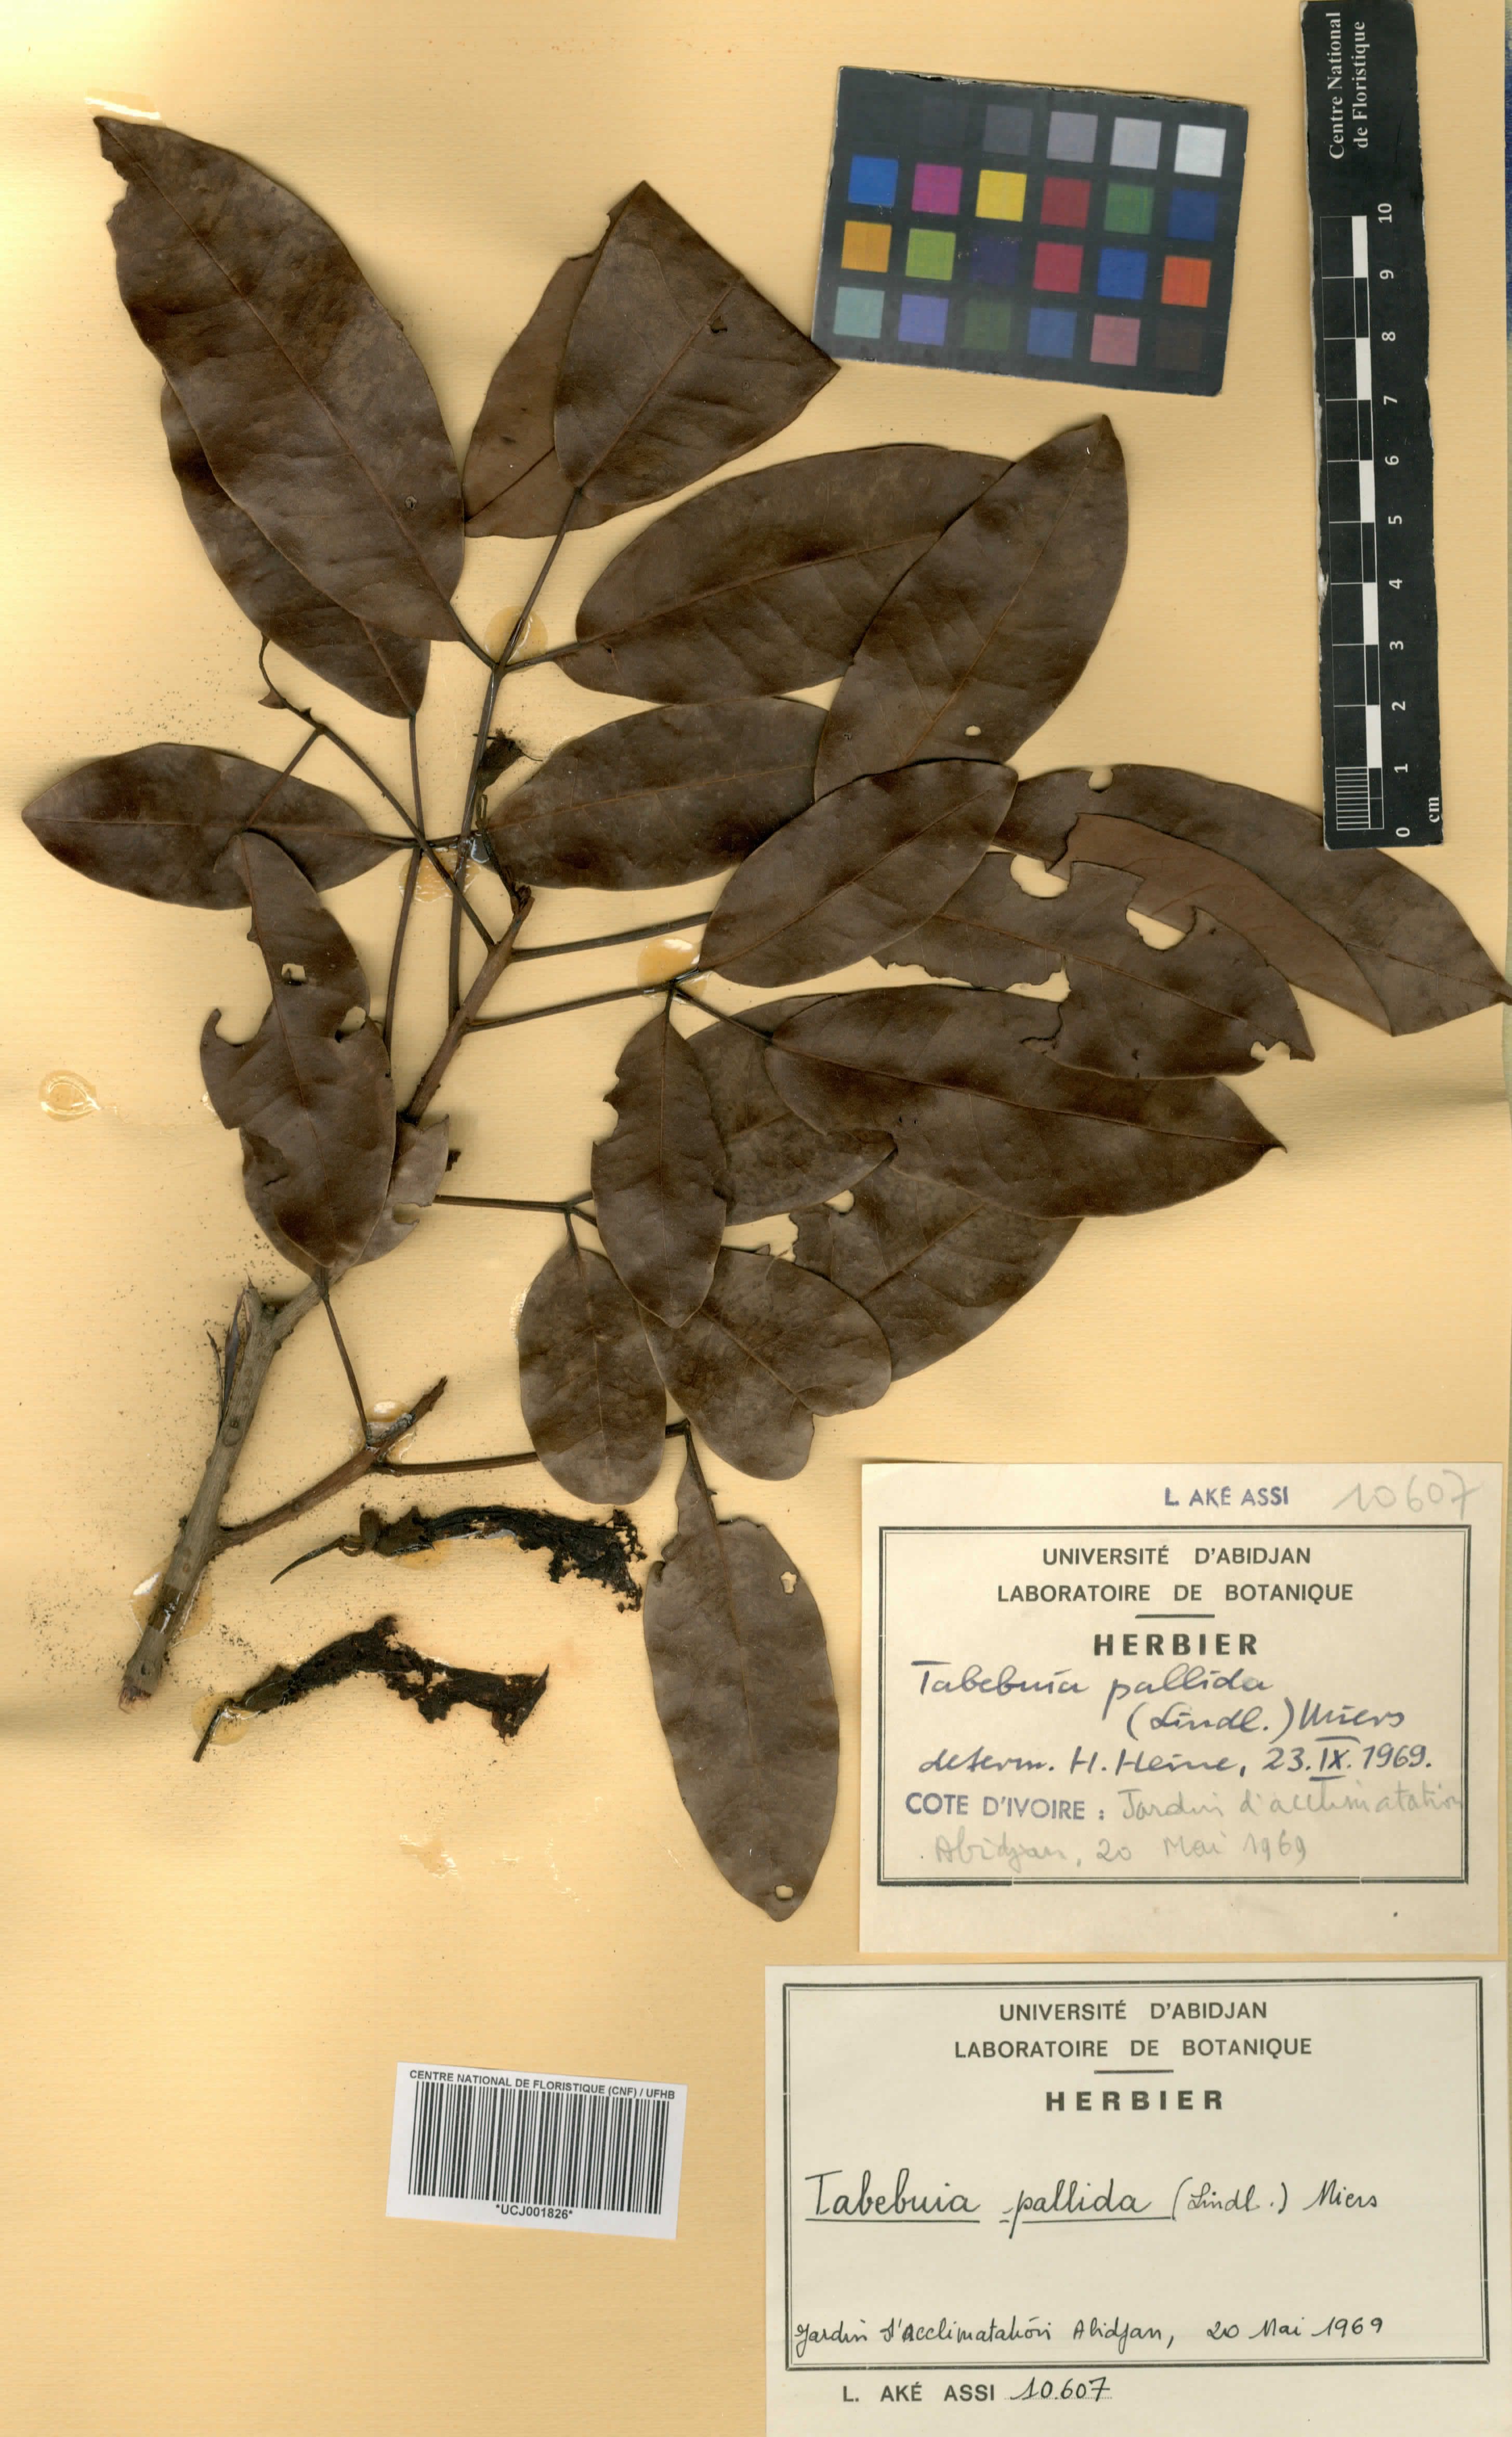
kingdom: Plantae
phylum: Tracheophyta
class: Magnoliopsida
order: Lamiales
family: Bignoniaceae
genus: Tabebuia
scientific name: Tabebuia pallida
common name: Cuban pink trumpet-tree
